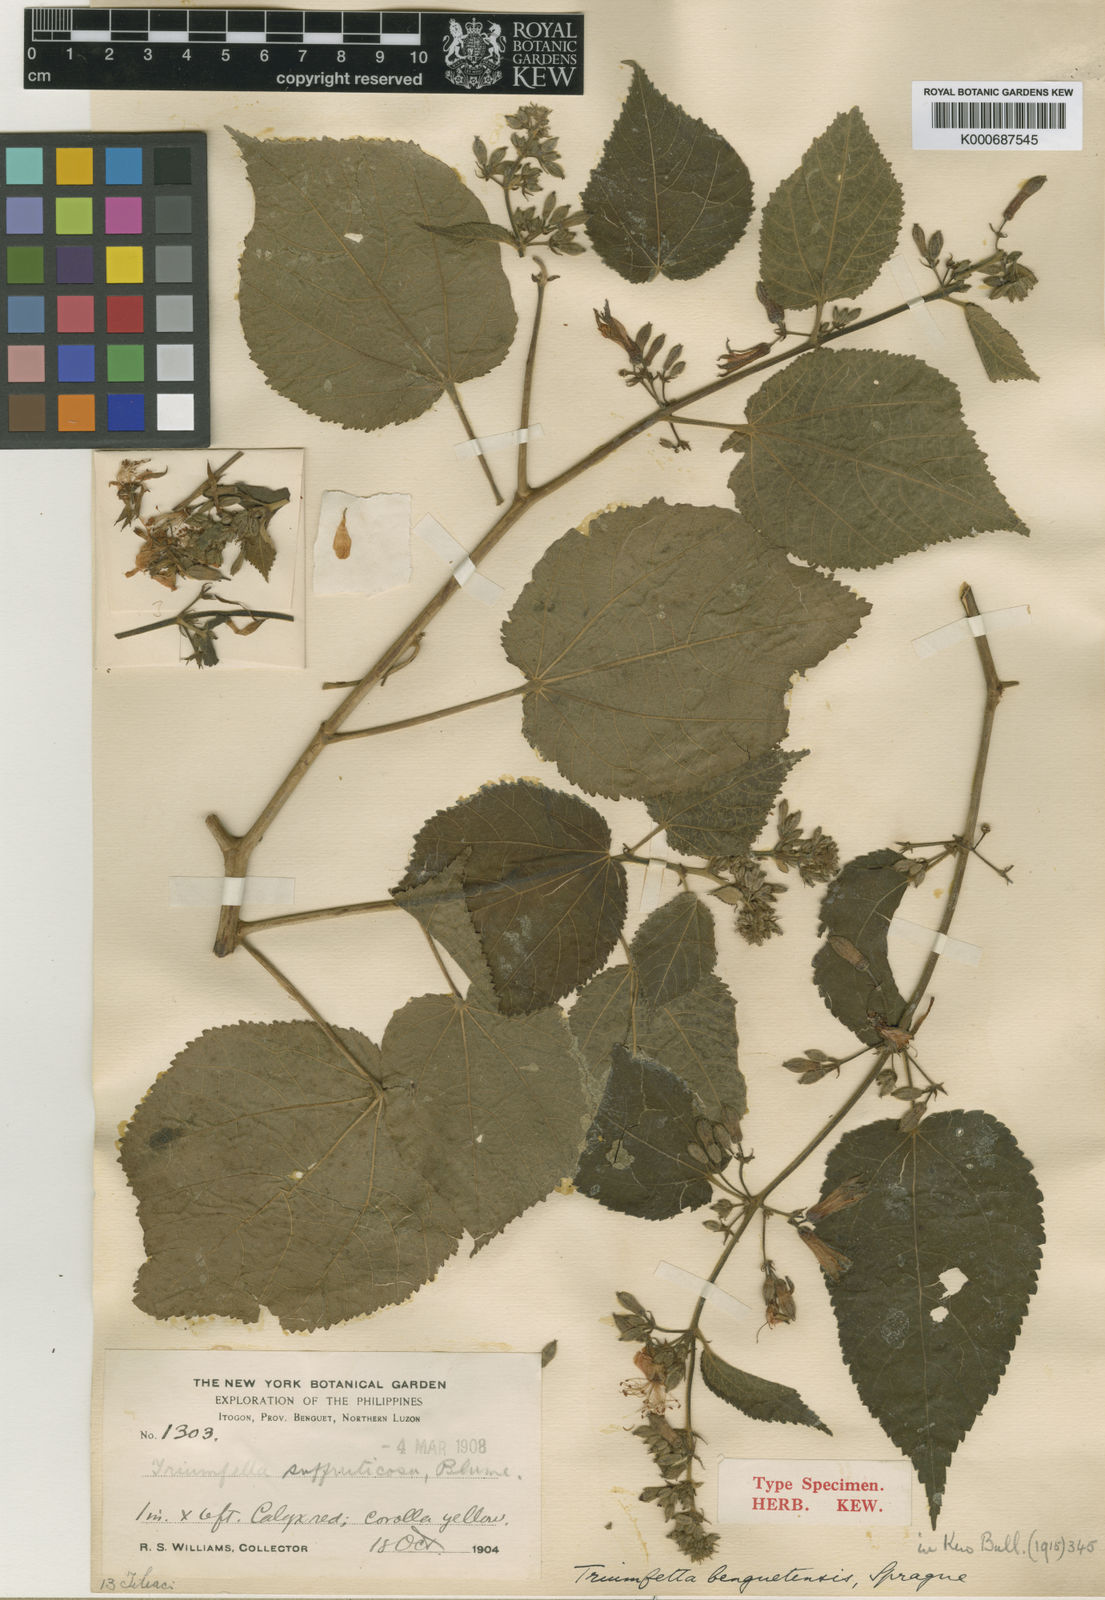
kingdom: Plantae
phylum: Tracheophyta
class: Magnoliopsida
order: Malvales
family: Malvaceae
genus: Triumfetta
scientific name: Triumfetta benguetensis
